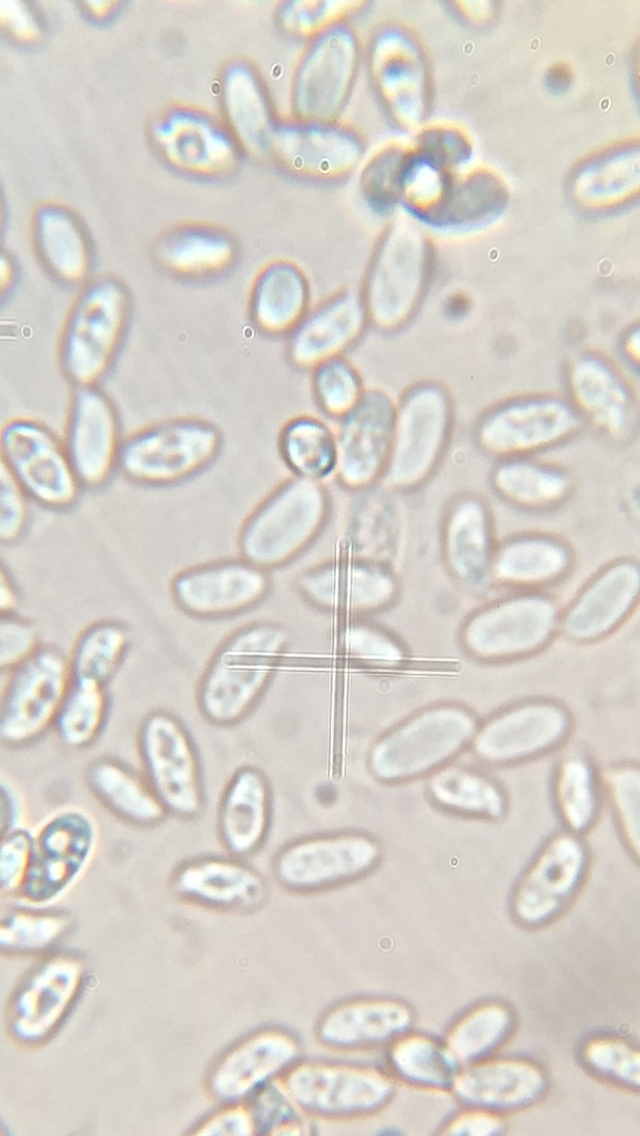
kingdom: Fungi
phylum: Basidiomycota
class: Agaricomycetes
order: Agaricales
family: Physalacriaceae
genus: Flammulina
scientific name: Flammulina velutipes
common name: gul fløjlsfod
